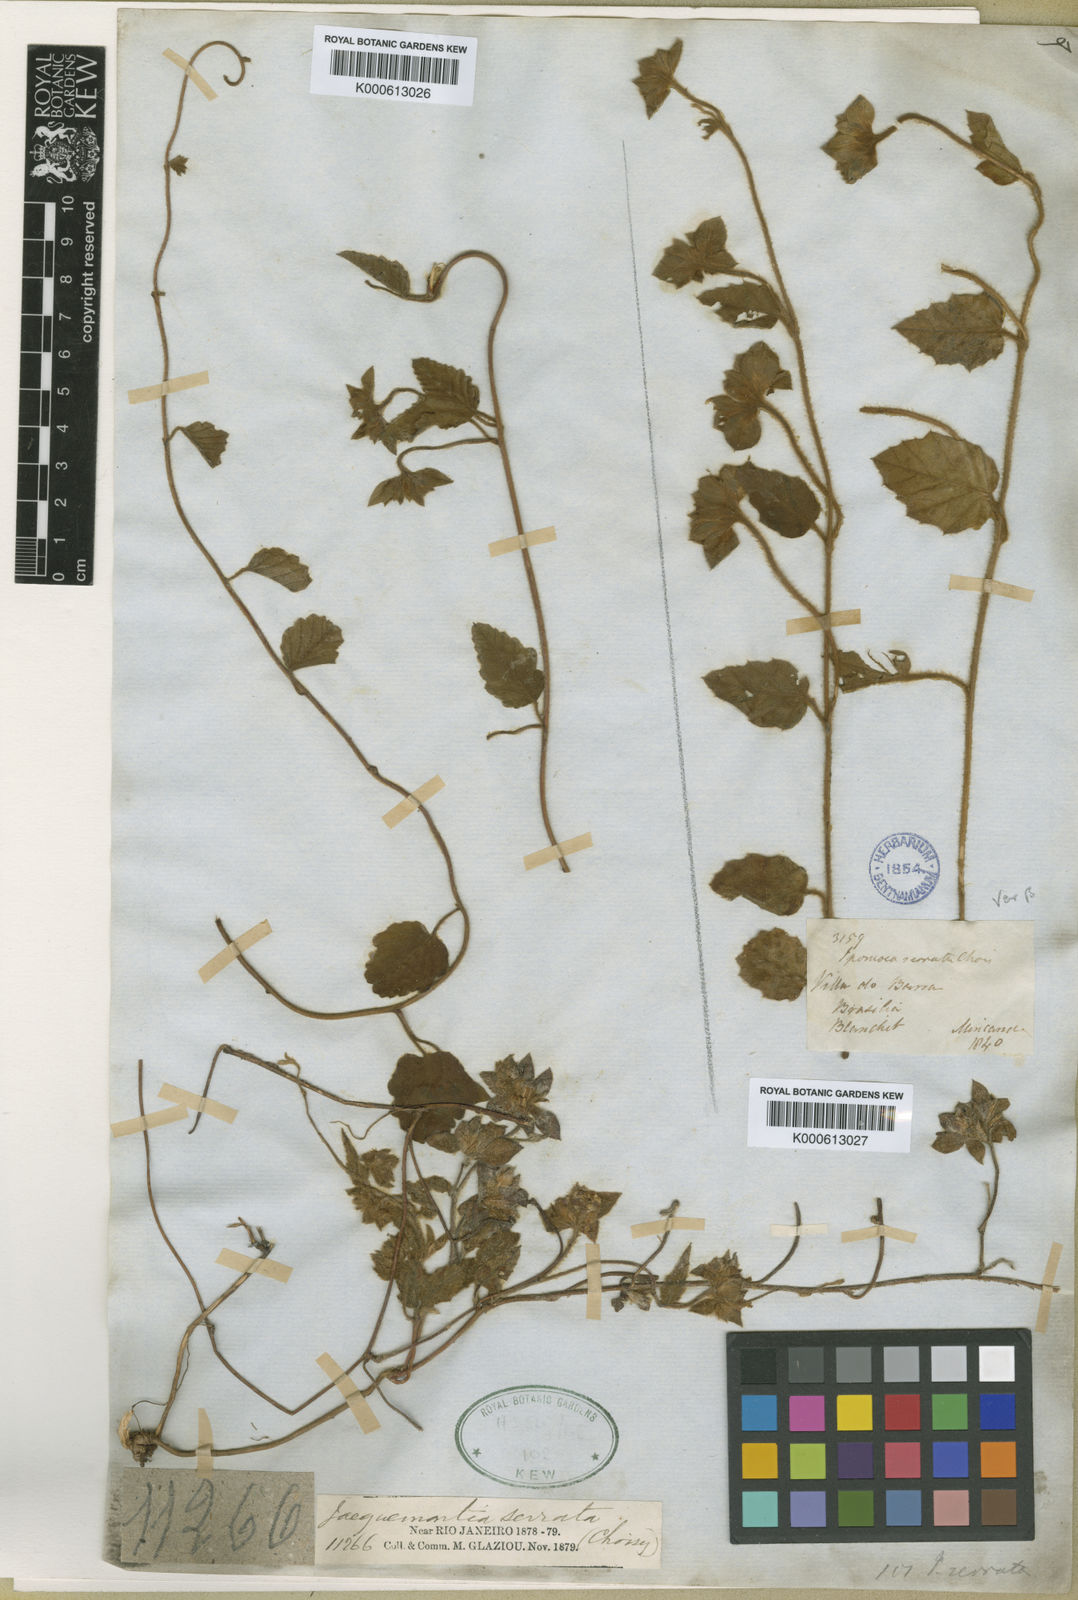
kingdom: Plantae
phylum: Tracheophyta
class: Magnoliopsida
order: Solanales
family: Convolvulaceae
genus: Daustinia
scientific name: Daustinia montana
